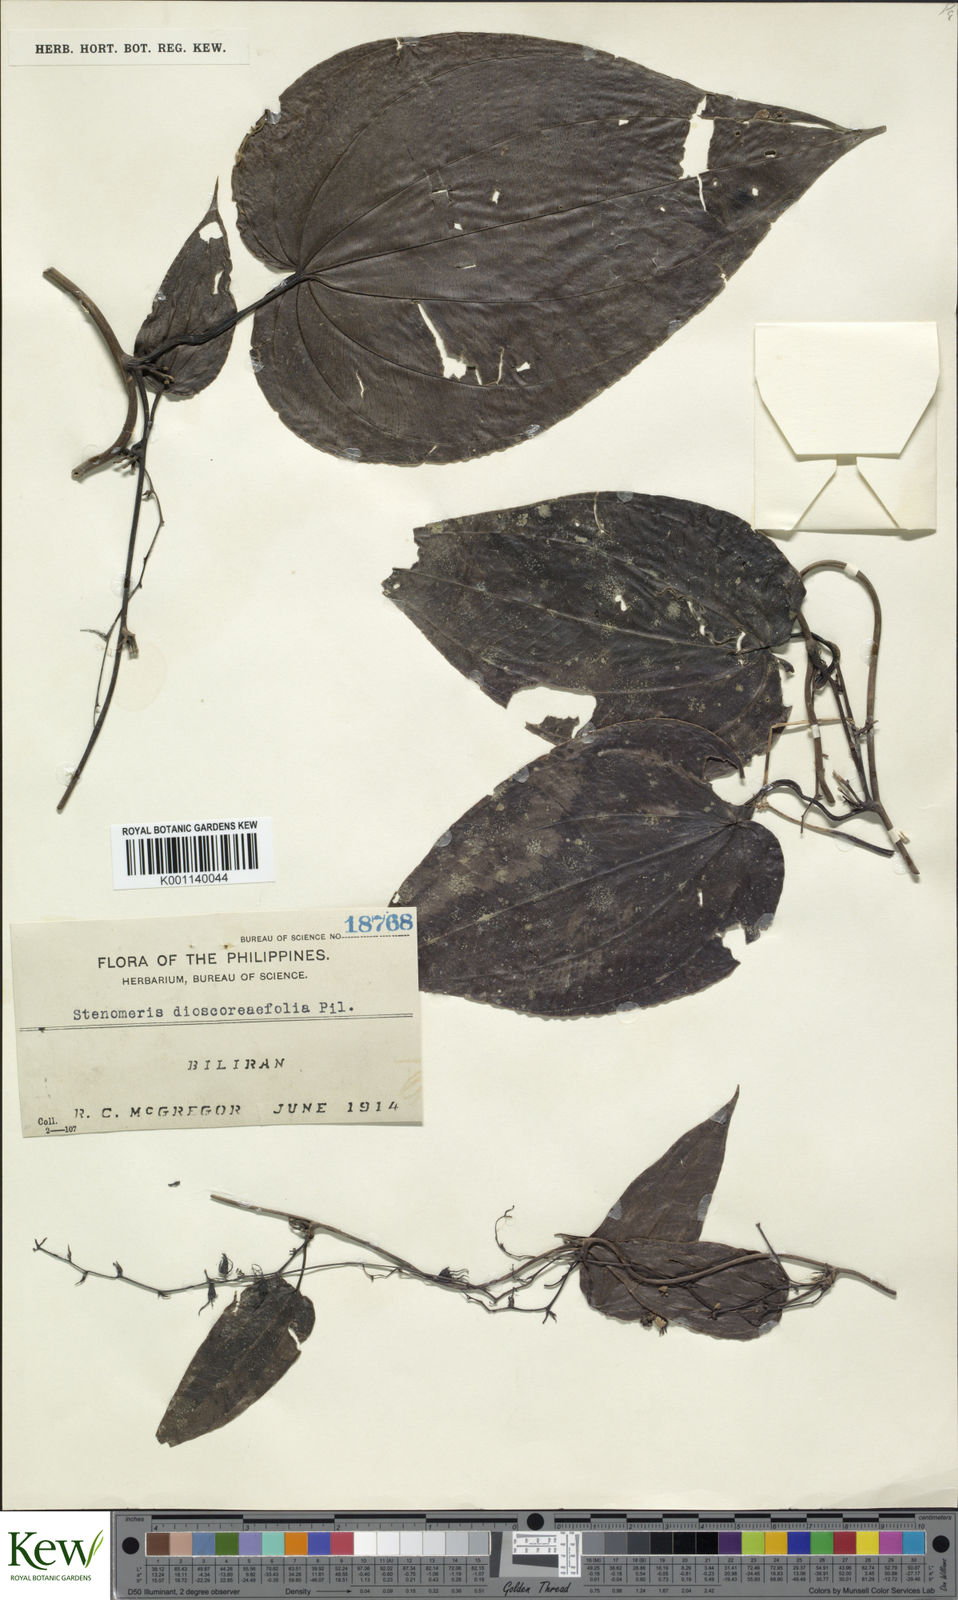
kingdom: Plantae
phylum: Tracheophyta
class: Liliopsida
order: Dioscoreales
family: Dioscoreaceae
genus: Stenomeris
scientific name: Stenomeris dioscoreifolia
